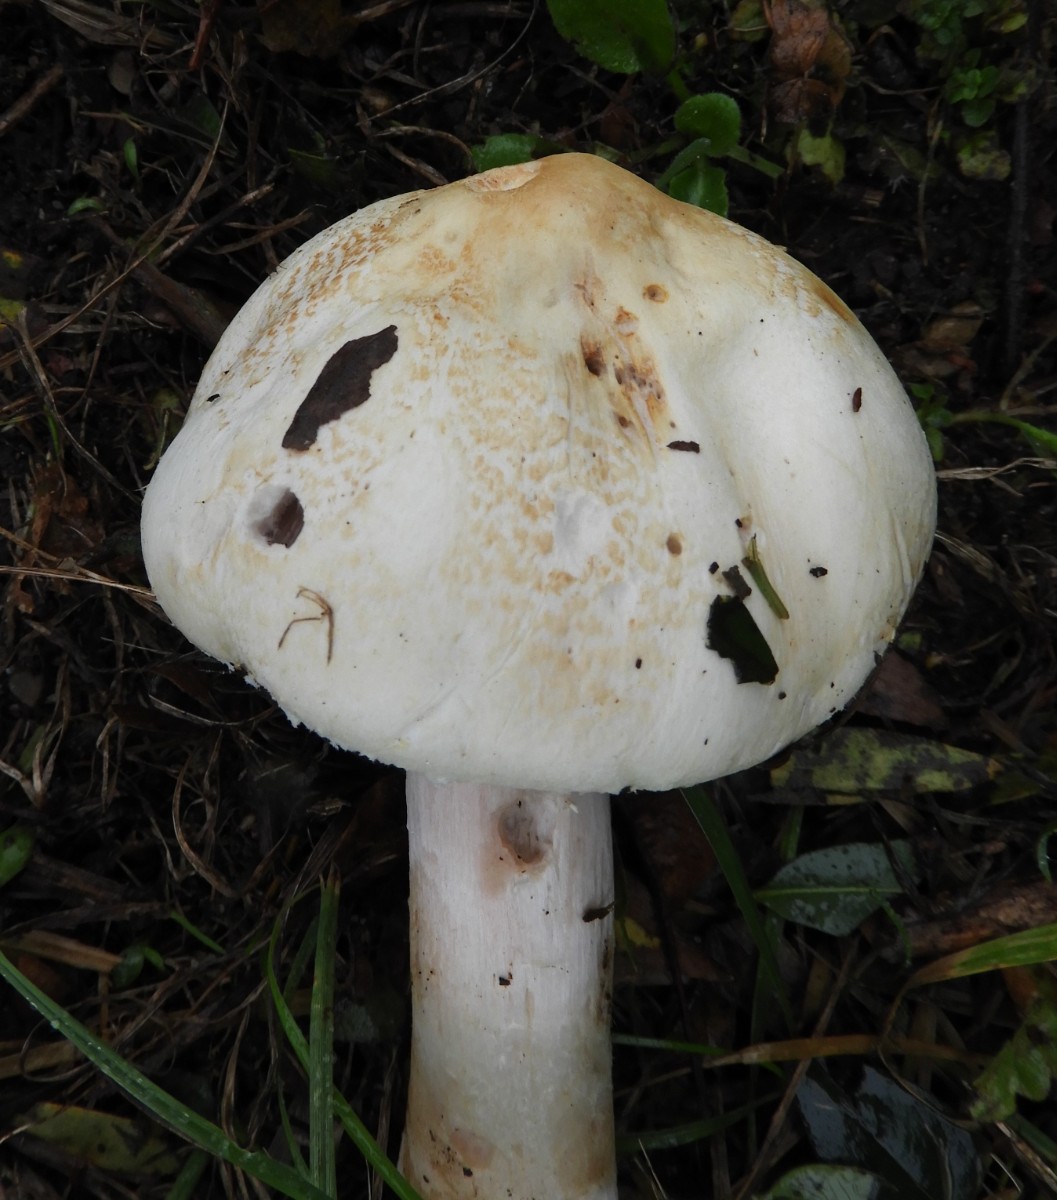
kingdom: Fungi
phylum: Basidiomycota
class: Agaricomycetes
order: Agaricales
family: Agaricaceae
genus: Agaricus
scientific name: Agaricus
